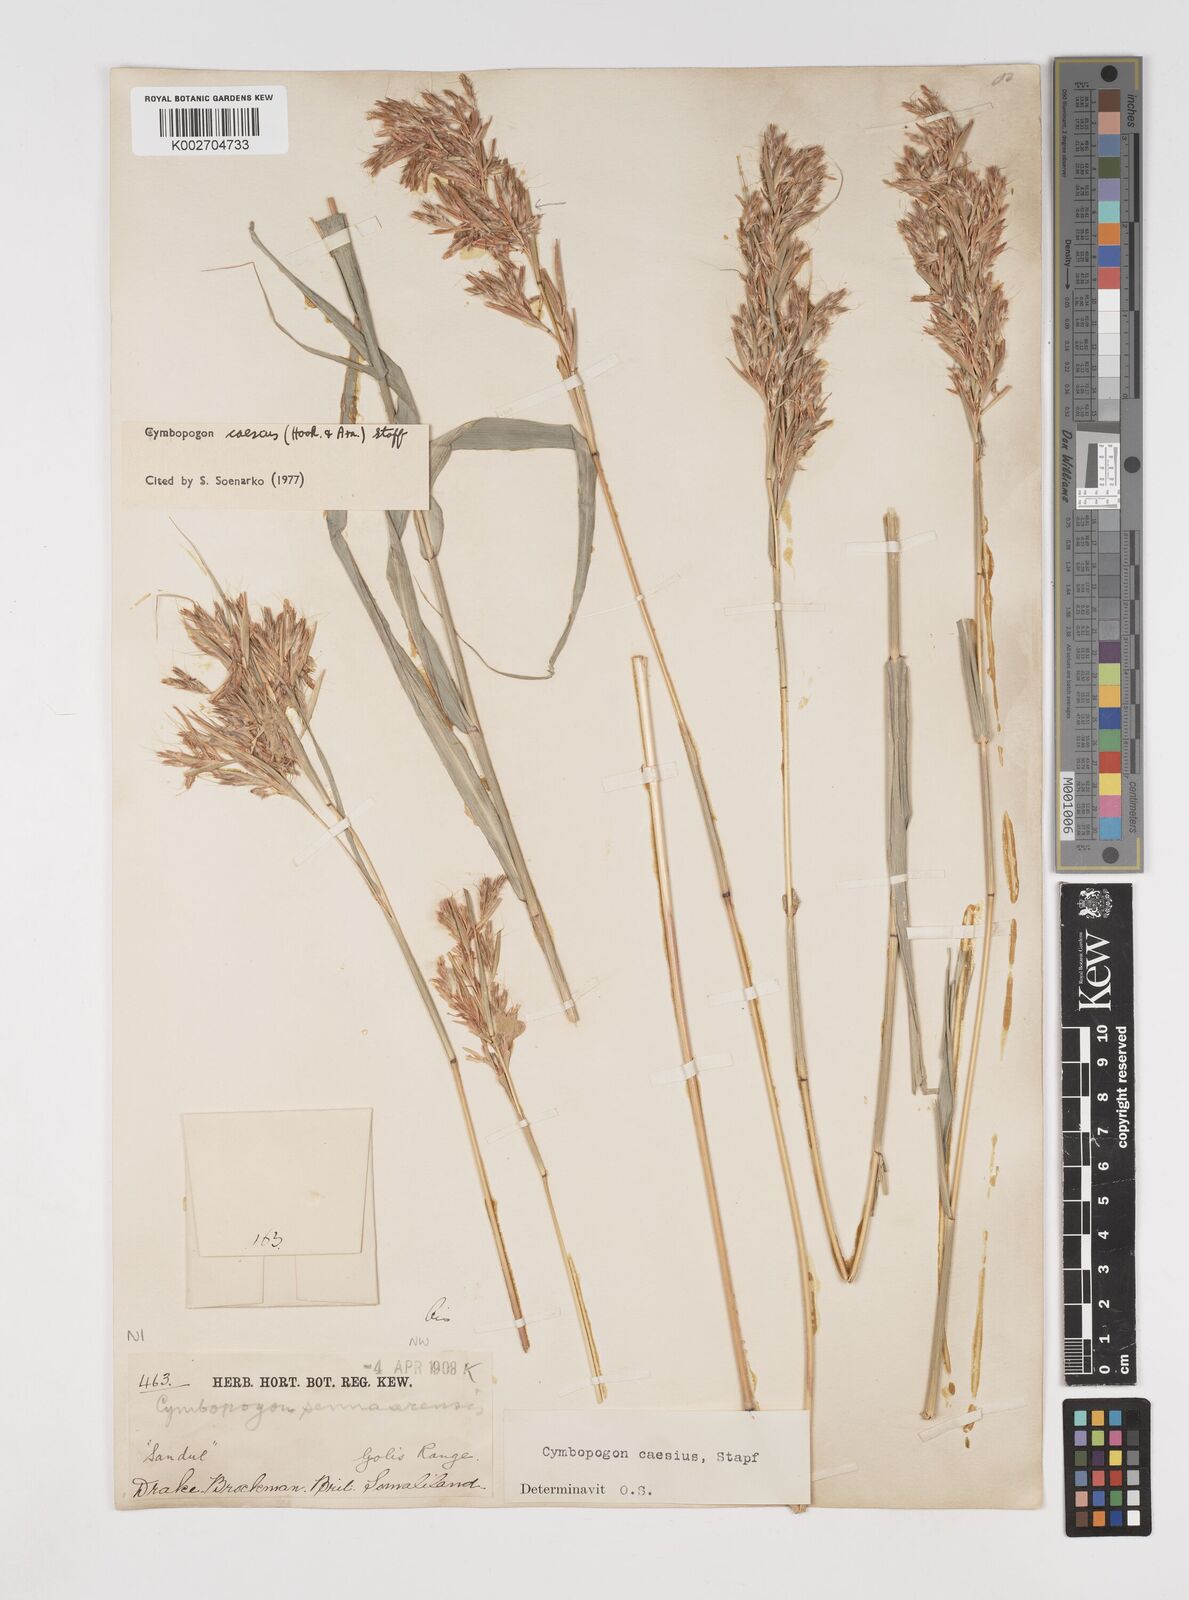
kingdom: Plantae
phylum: Tracheophyta
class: Liliopsida
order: Poales
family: Poaceae
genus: Cymbopogon
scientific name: Cymbopogon caesius
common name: Kachi grass
